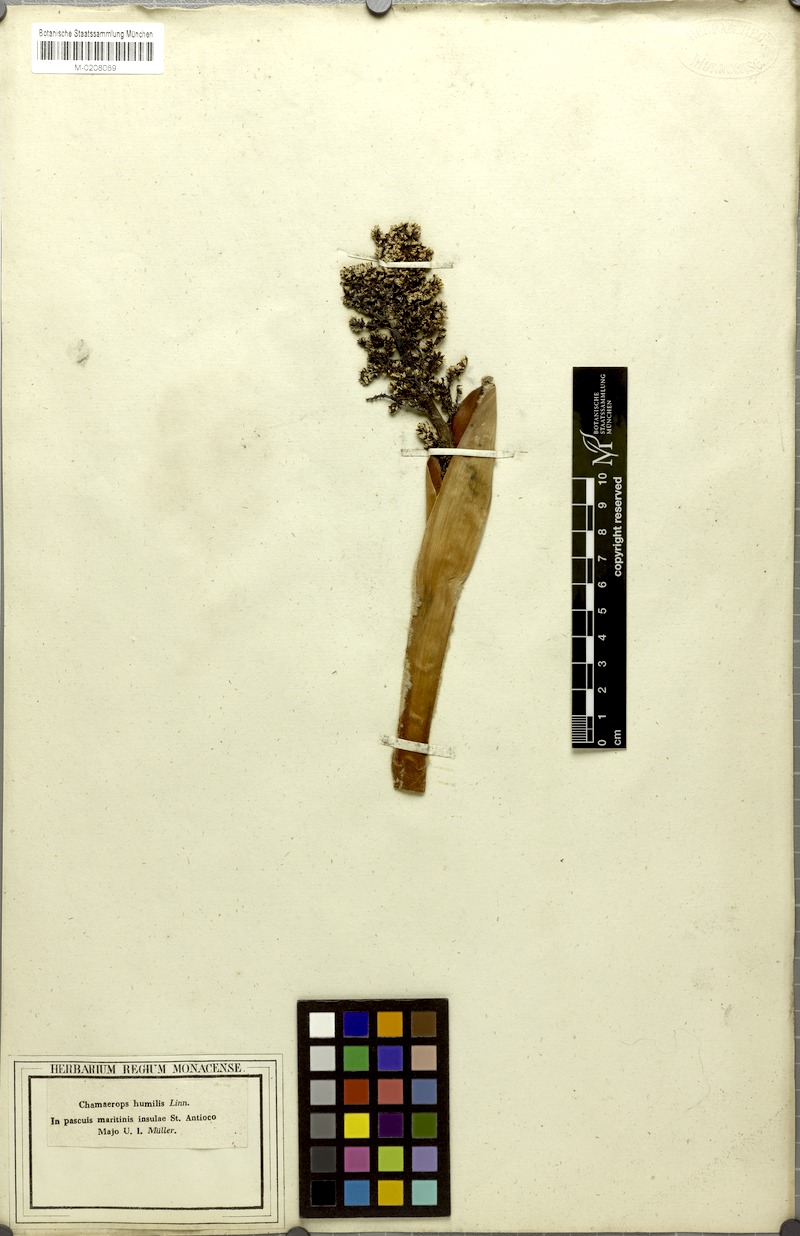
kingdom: Plantae
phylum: Tracheophyta
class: Liliopsida
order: Arecales
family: Arecaceae
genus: Chamaerops
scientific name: Chamaerops humilis
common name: Dwarf fan palm
